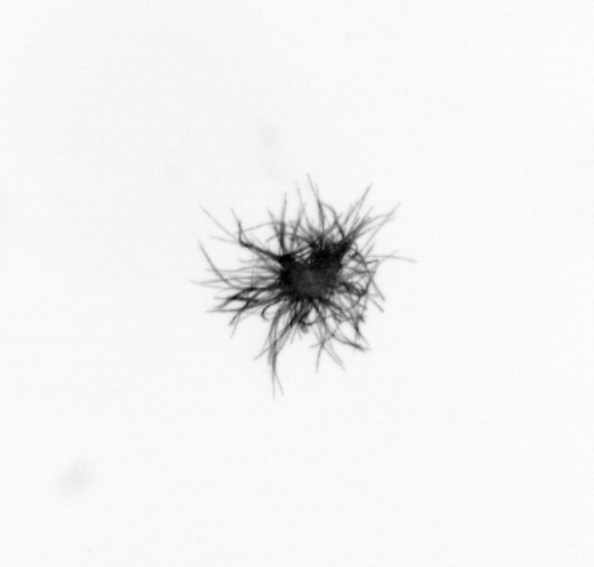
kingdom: Bacteria
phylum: Cyanobacteria
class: Cyanobacteriia
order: Cyanobacteriales
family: Microcoleaceae
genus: Trichodesmium
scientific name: Trichodesmium
